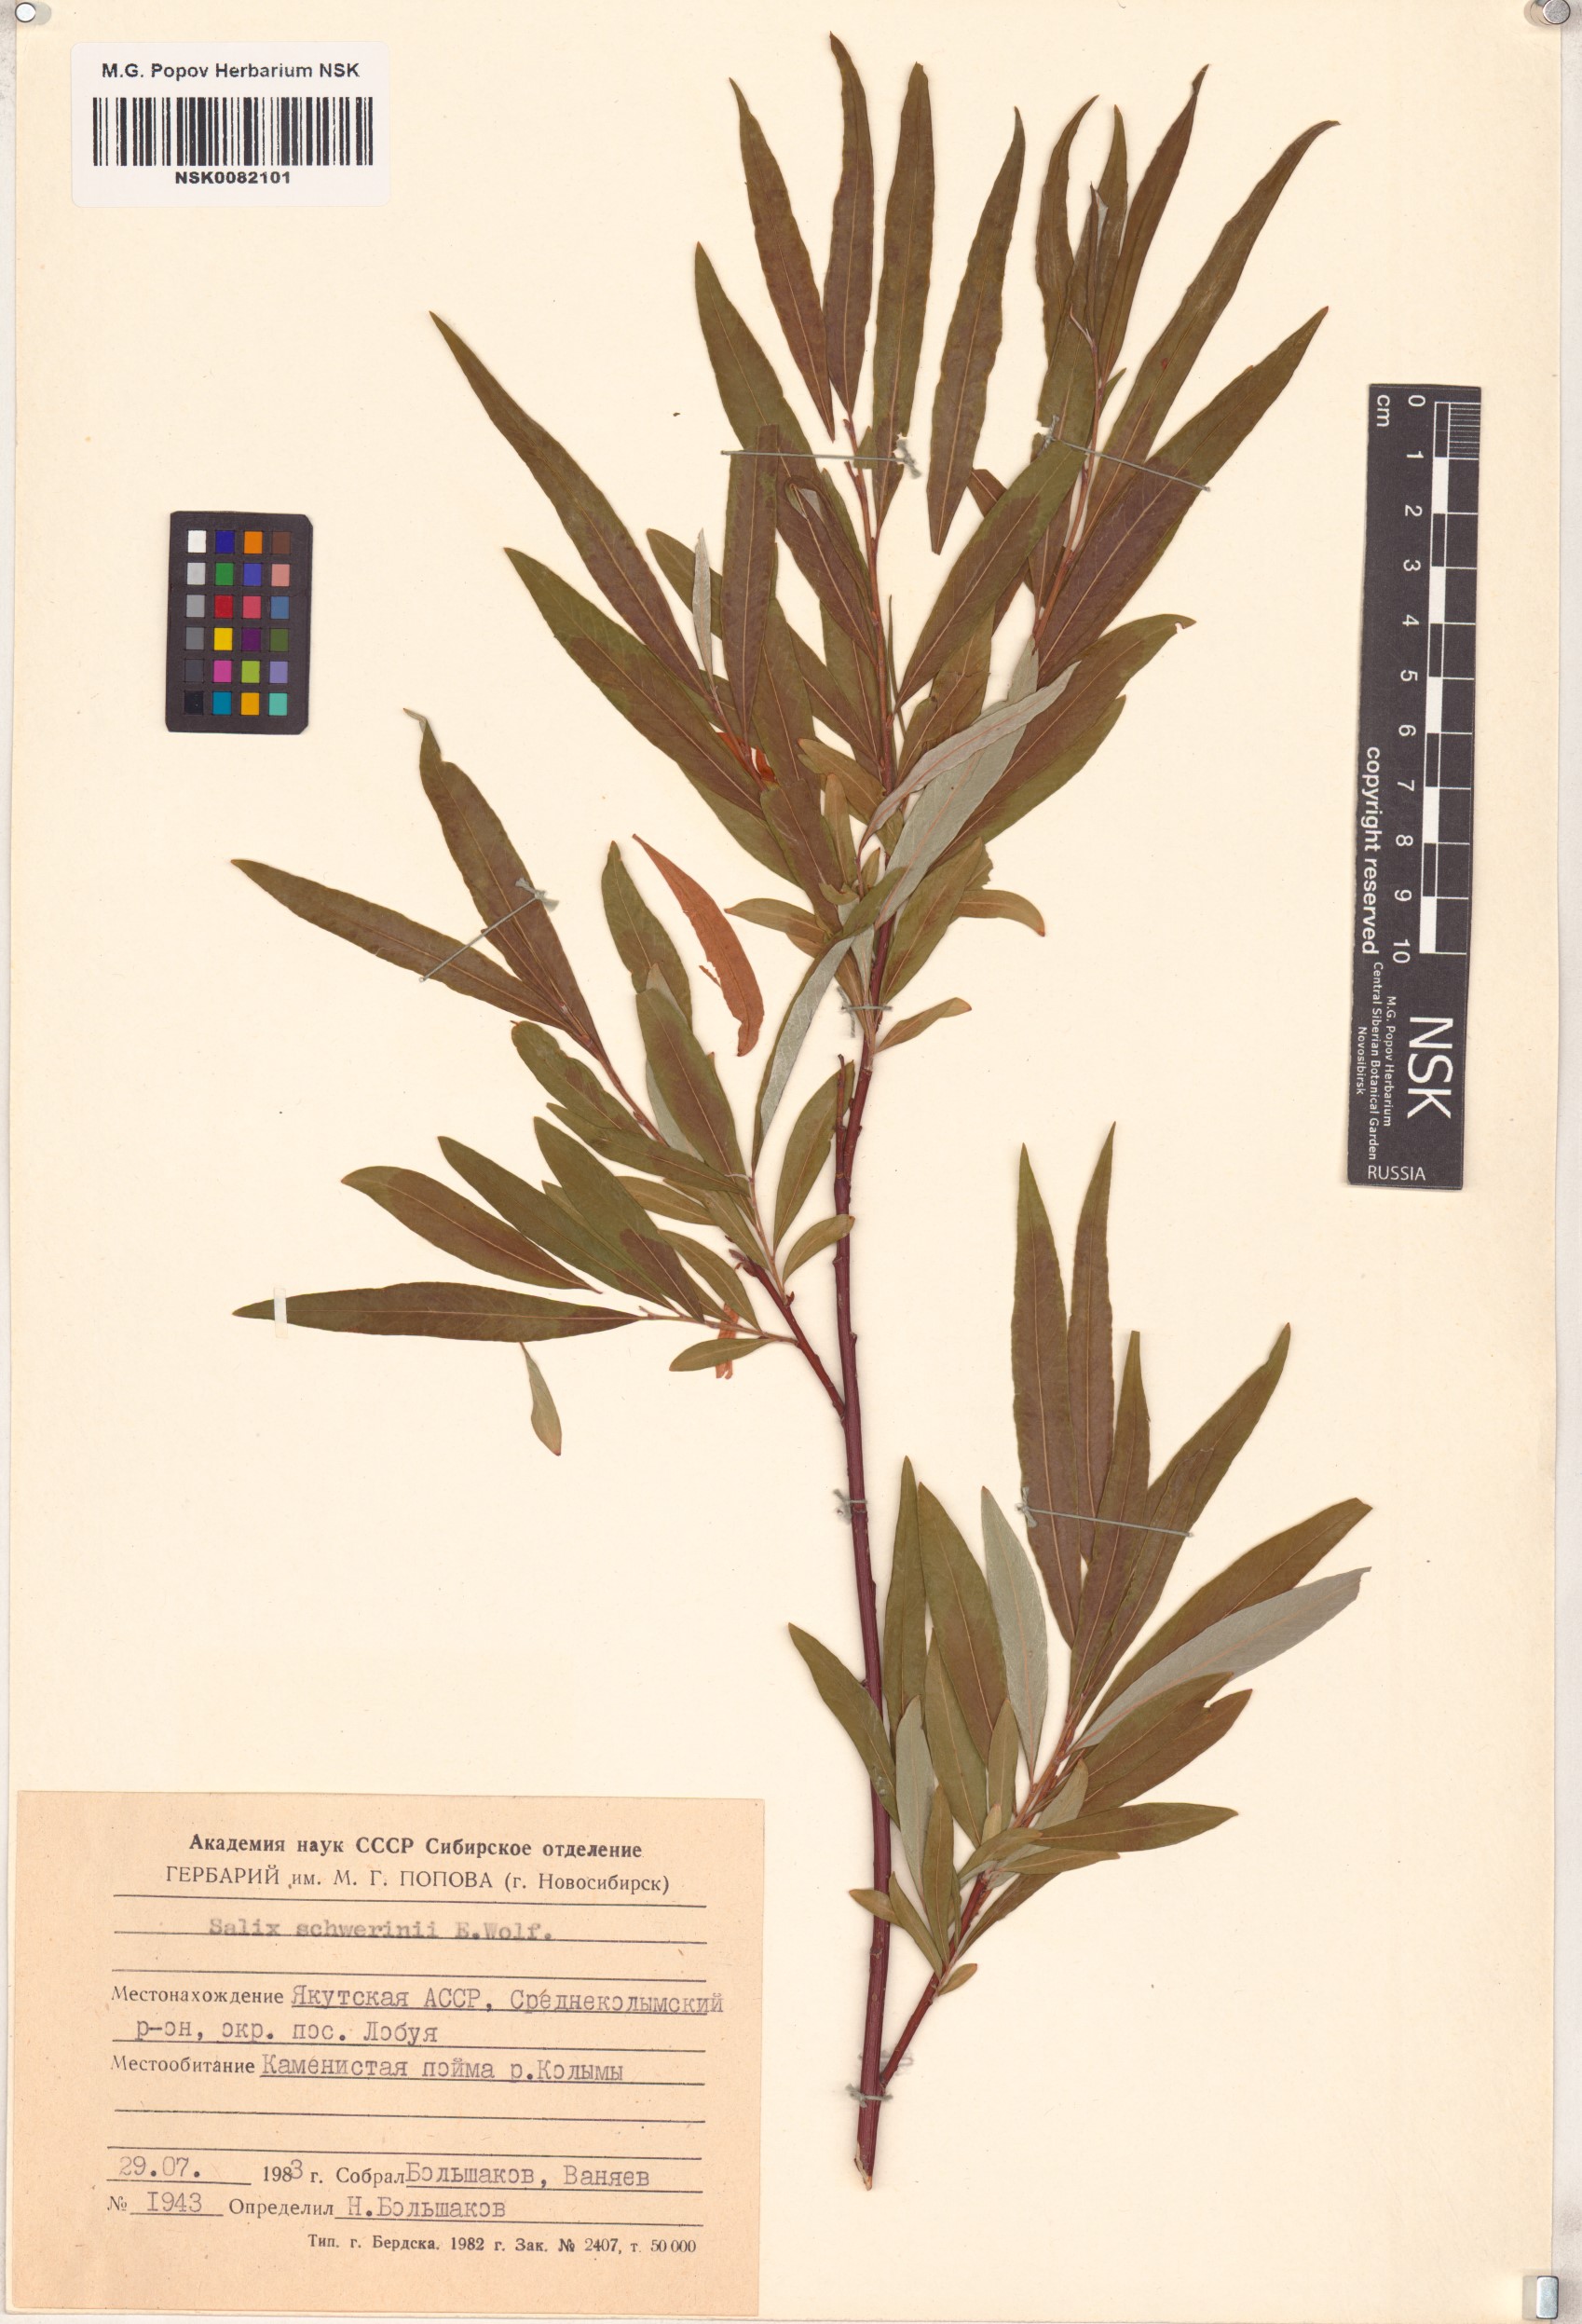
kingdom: Plantae
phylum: Tracheophyta
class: Magnoliopsida
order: Malpighiales
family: Salicaceae
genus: Salix
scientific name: Salix schwerinii
